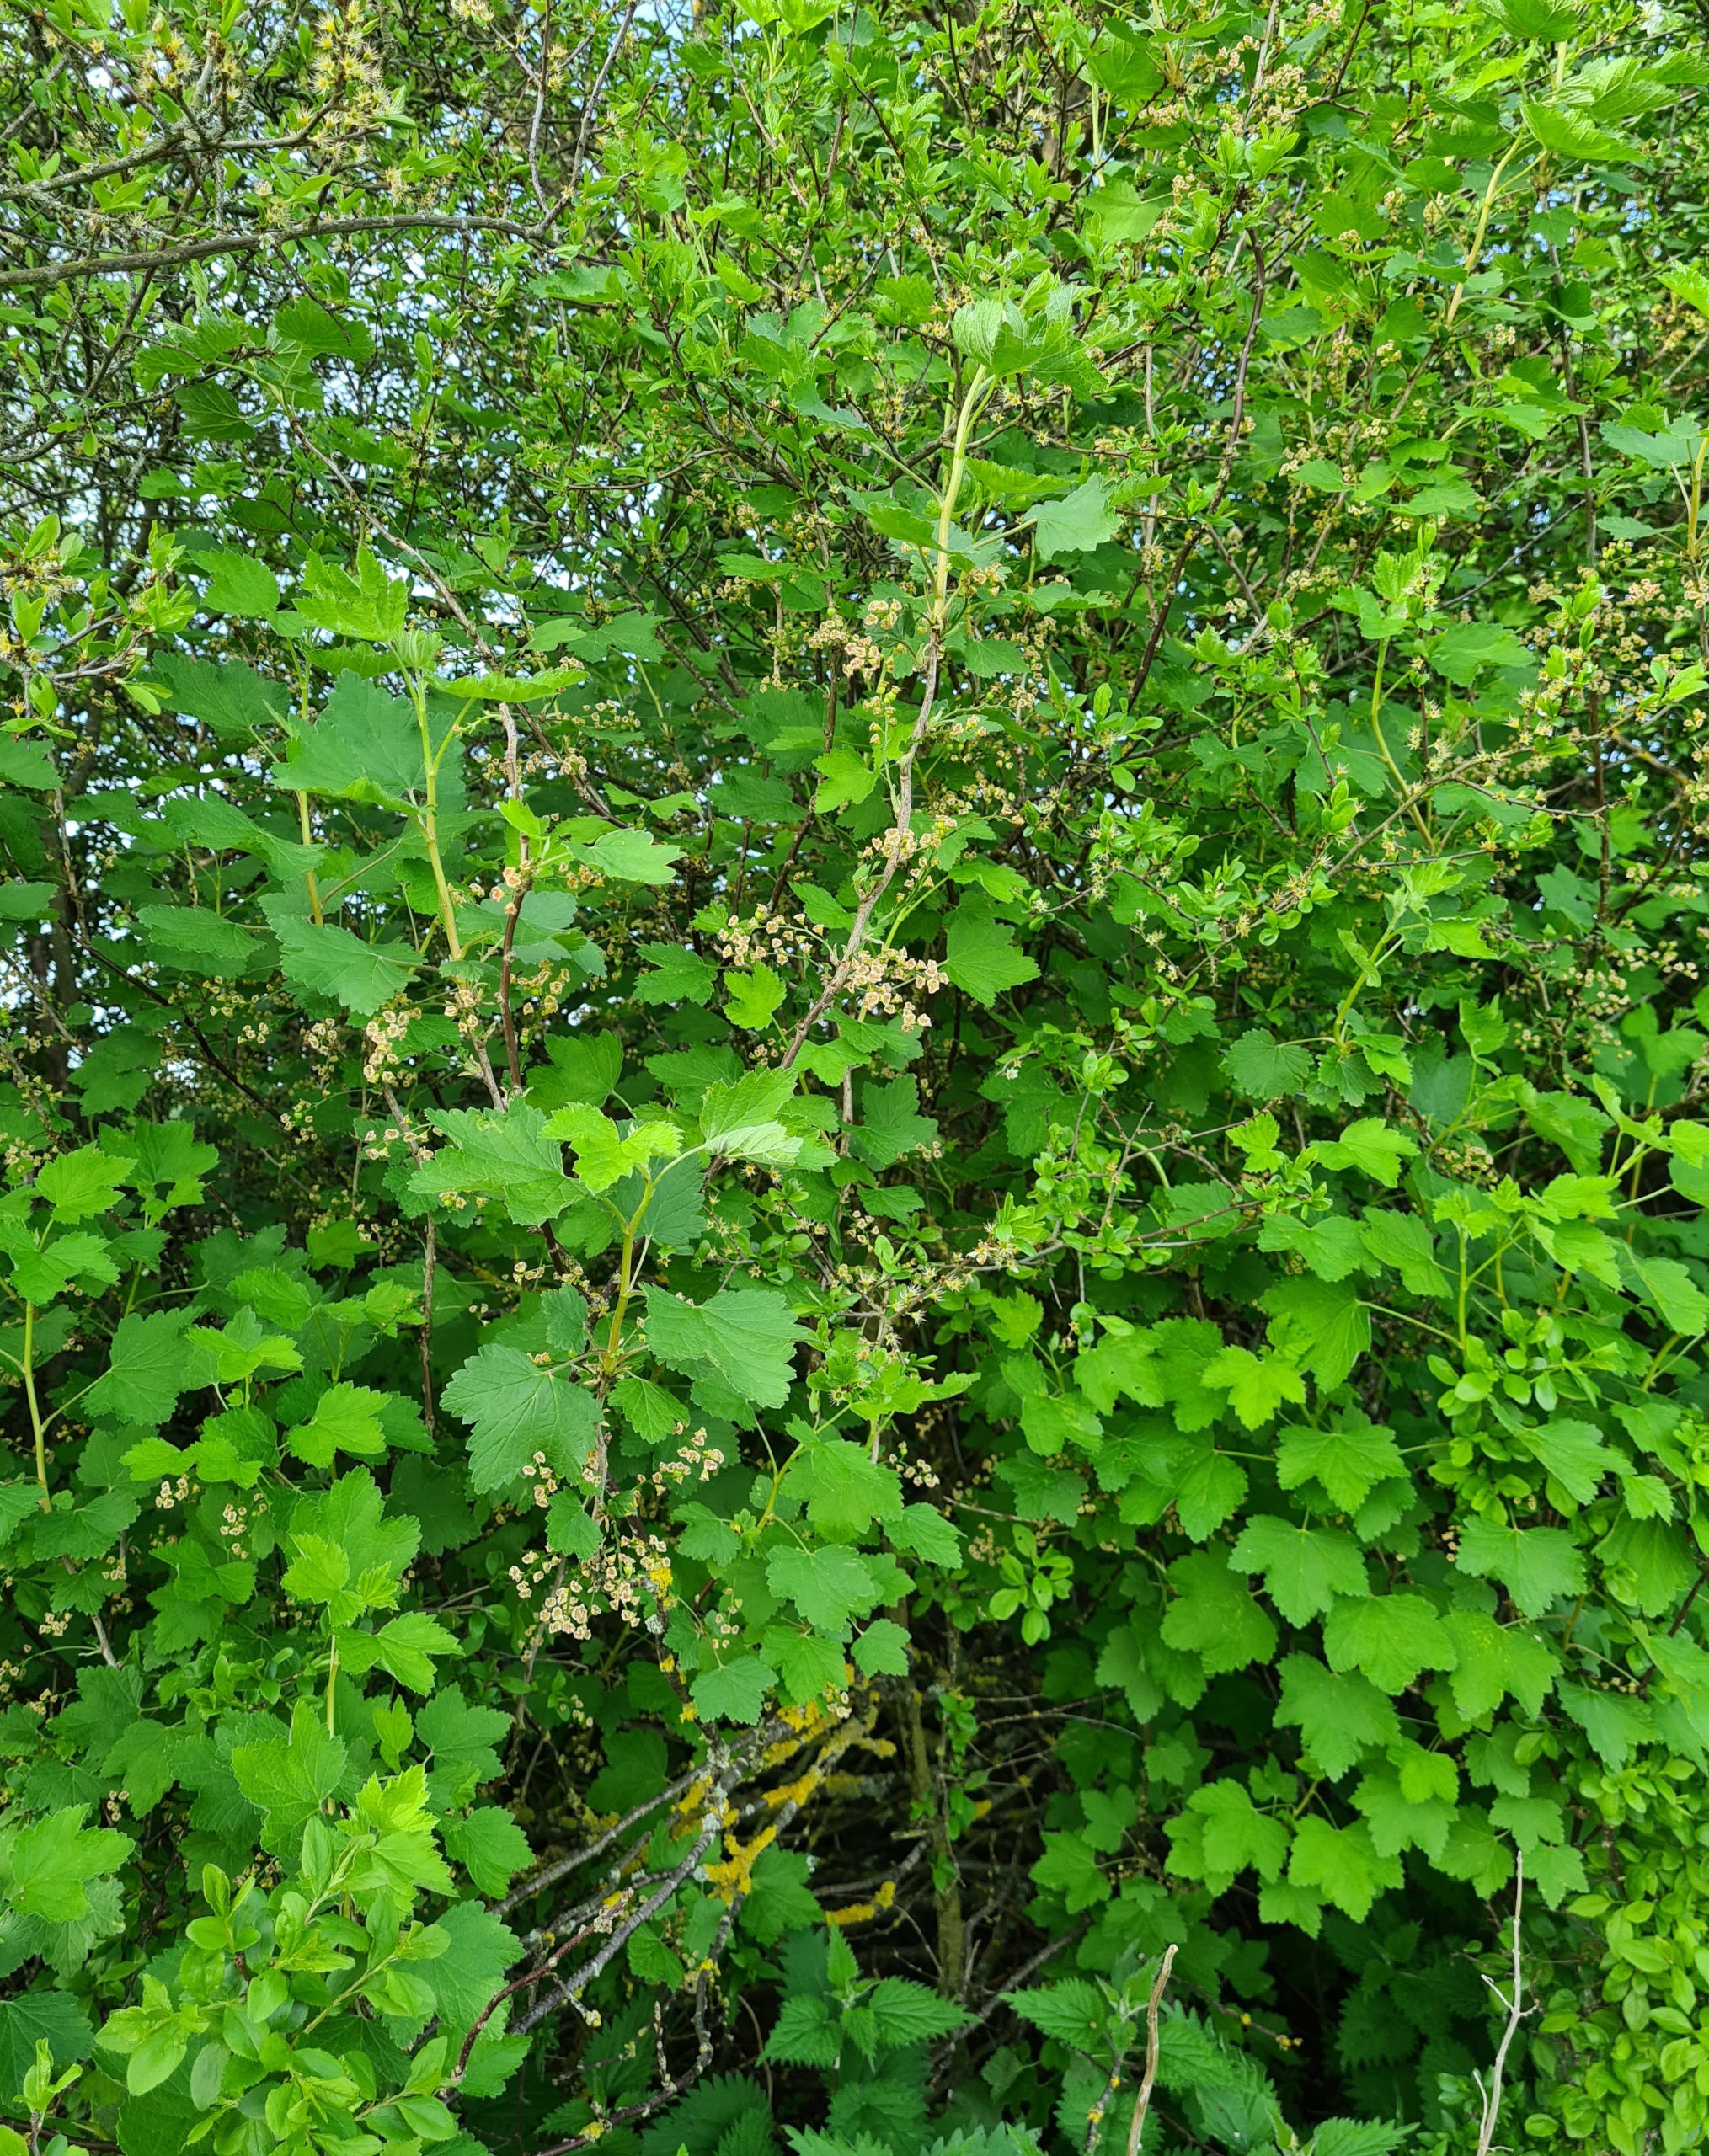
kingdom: Plantae
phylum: Tracheophyta
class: Magnoliopsida
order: Saxifragales
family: Grossulariaceae
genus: Ribes
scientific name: Ribes
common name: Ribsslægten
